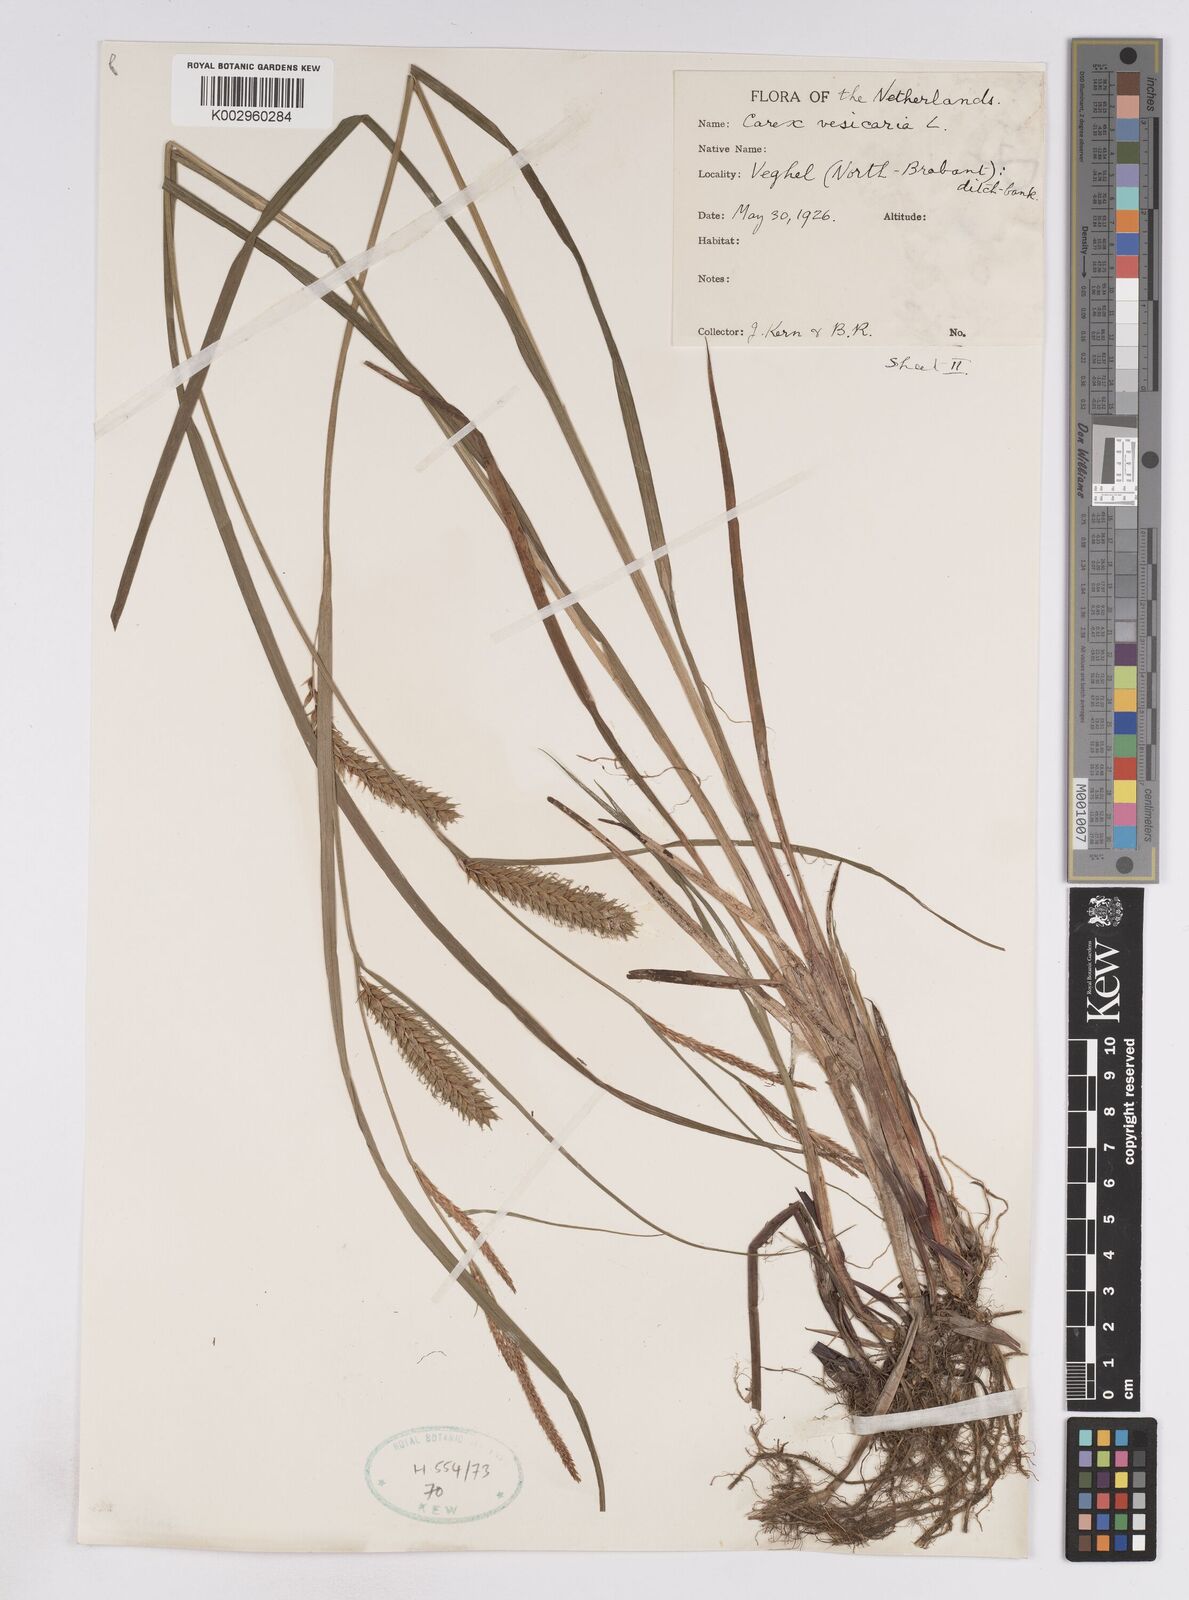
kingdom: Plantae
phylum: Tracheophyta
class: Liliopsida
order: Poales
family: Cyperaceae
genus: Carex
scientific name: Carex vesicaria
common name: Bladder-sedge
